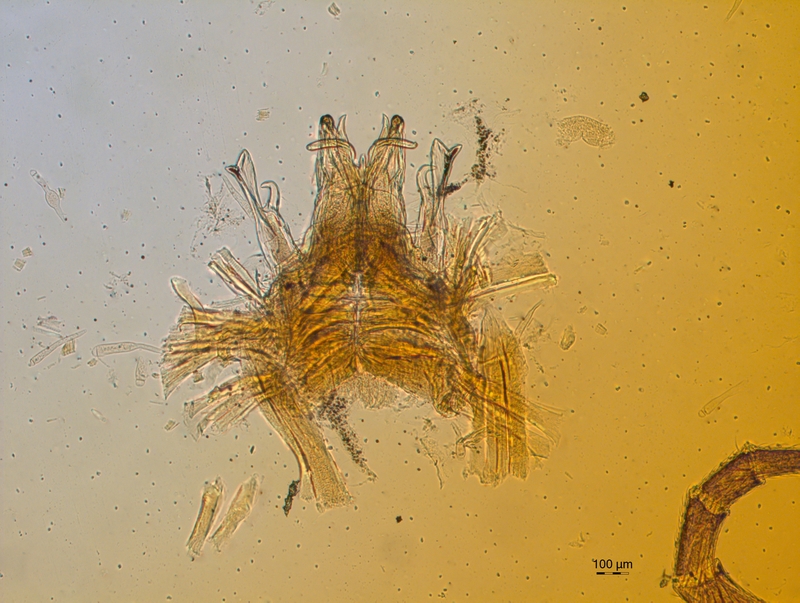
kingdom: Animalia
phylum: Arthropoda
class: Diplopoda
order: Chordeumatida
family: Craspedosomatidae
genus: Atractosoma
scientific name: Atractosoma meridionale
